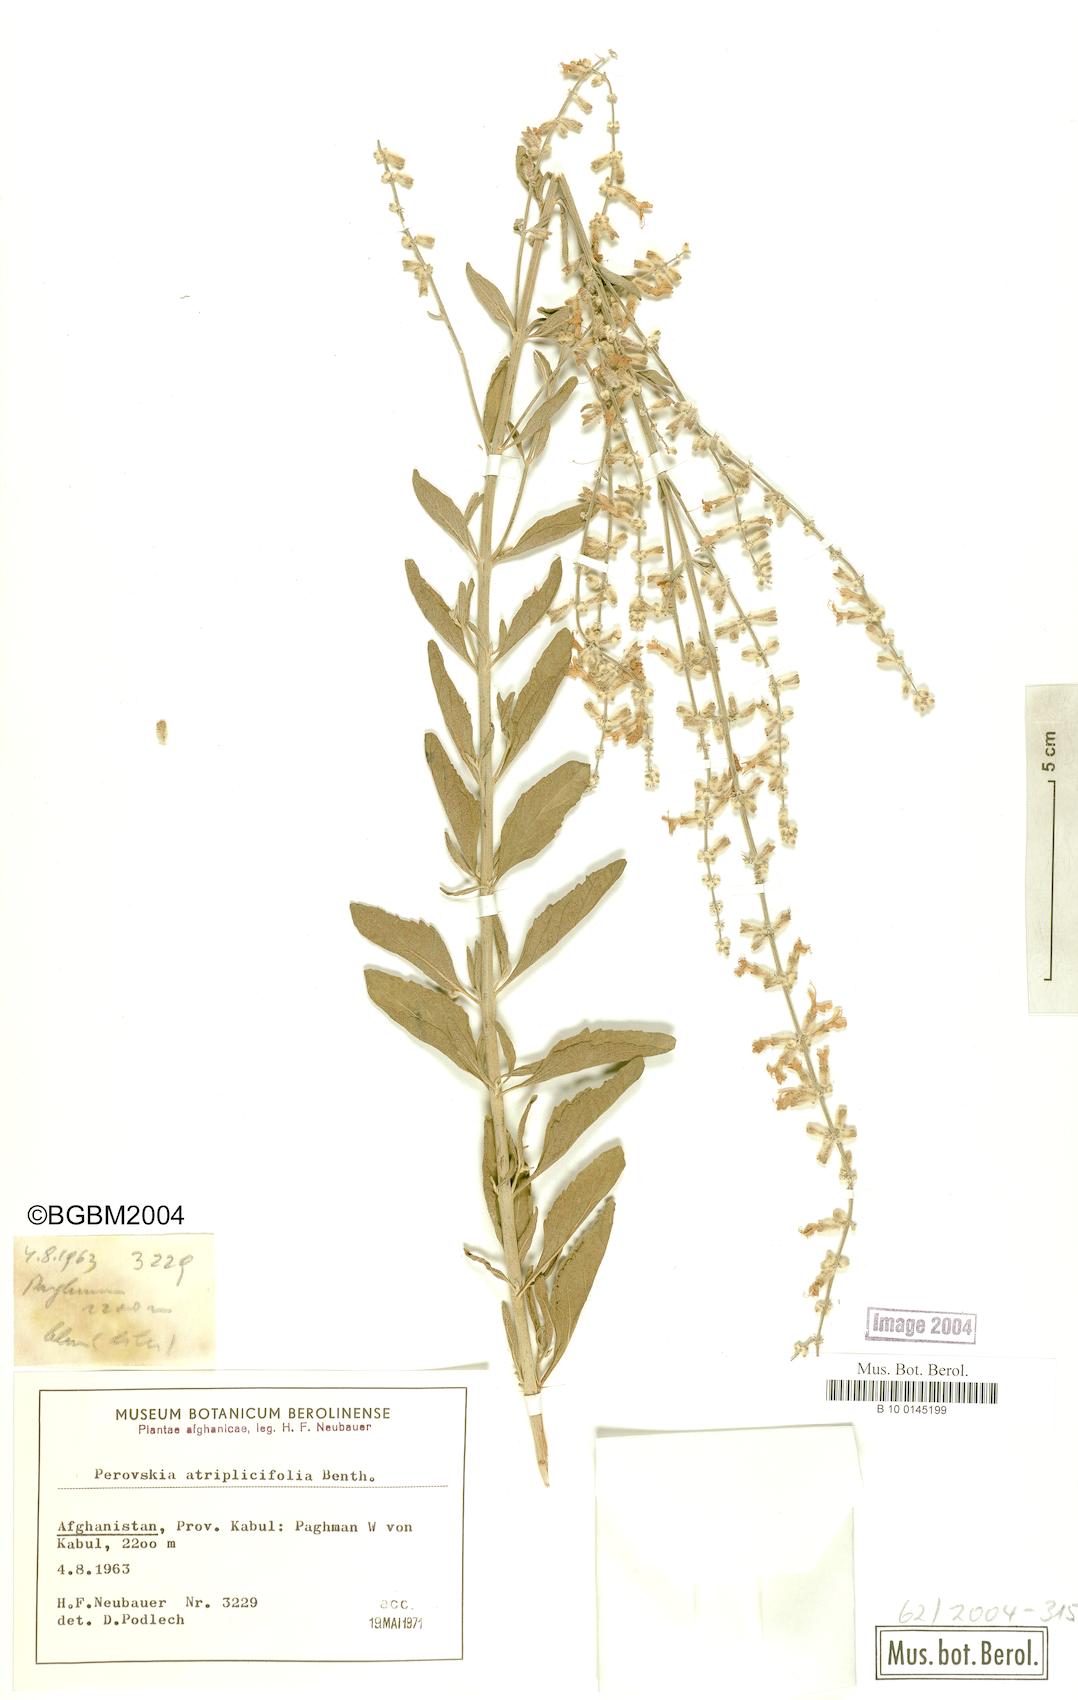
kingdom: Plantae
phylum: Tracheophyta
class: Magnoliopsida
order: Lamiales
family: Lamiaceae
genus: Salvia
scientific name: Salvia yangii
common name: Russian sage
